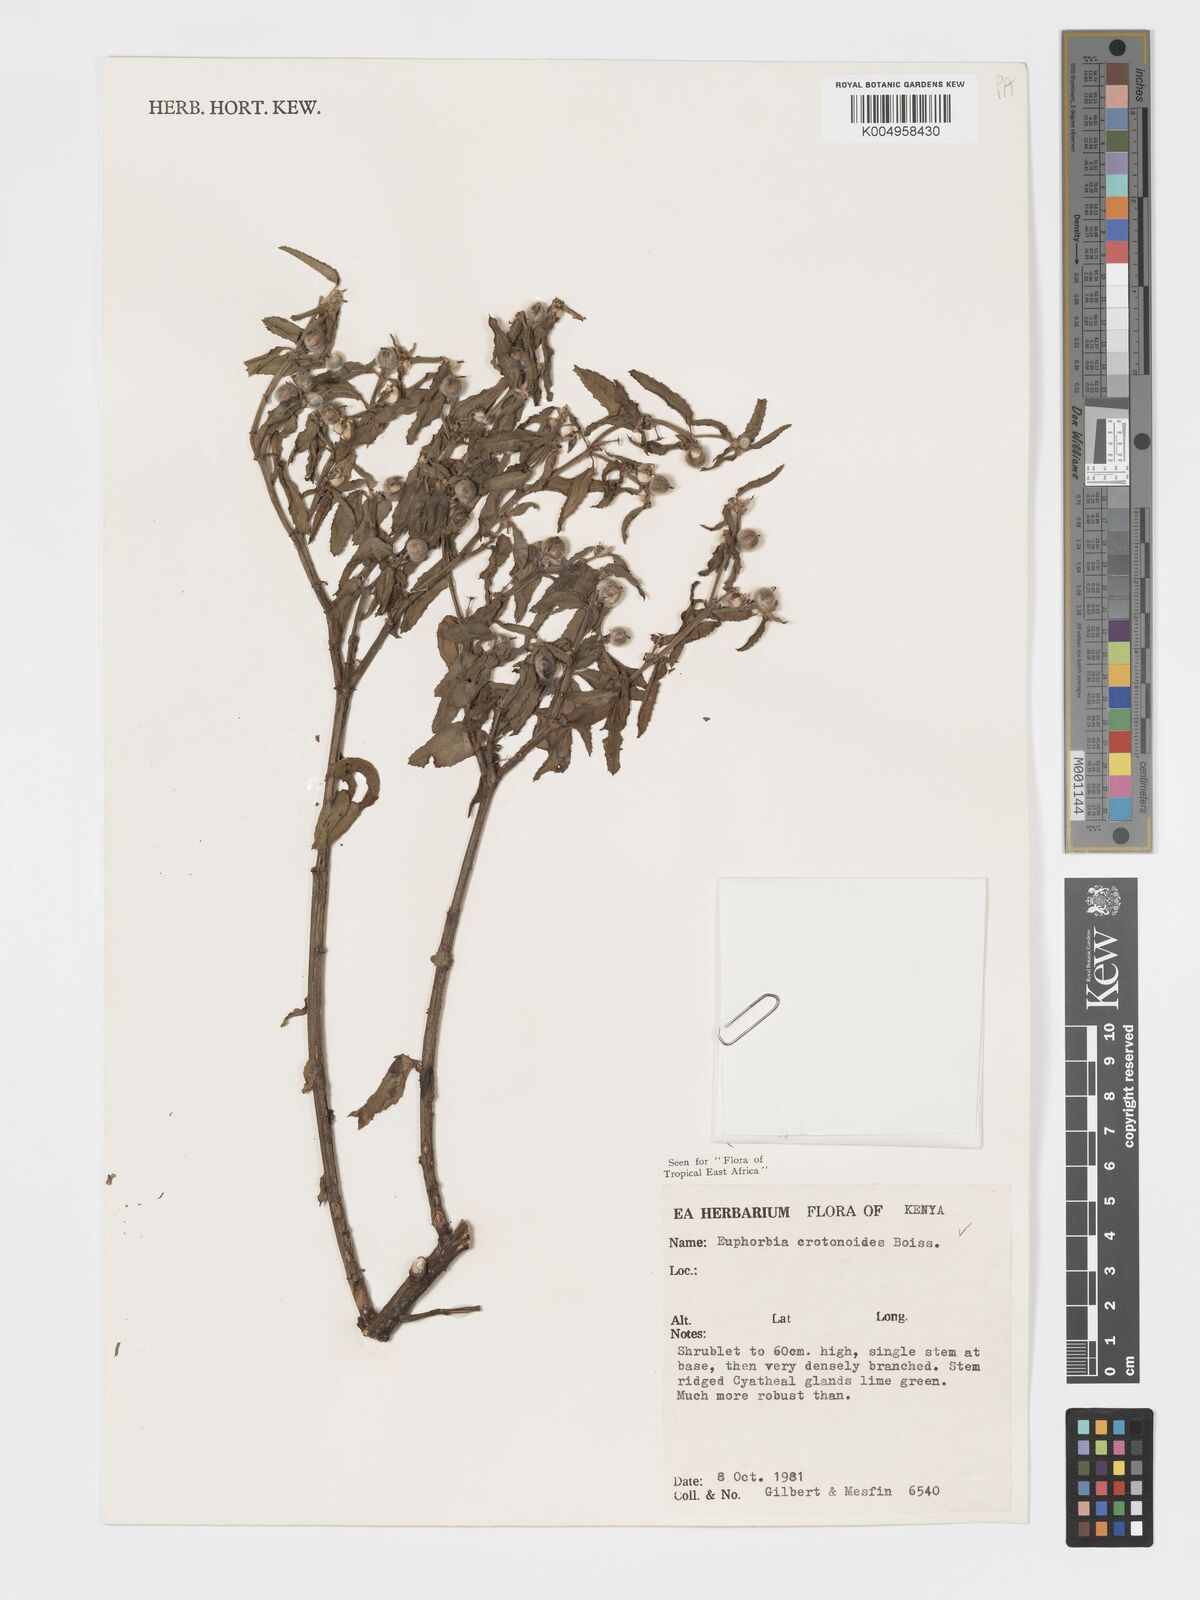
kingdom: Plantae
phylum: Tracheophyta
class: Magnoliopsida
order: Malpighiales
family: Euphorbiaceae
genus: Euphorbia
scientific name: Euphorbia crotonoides
